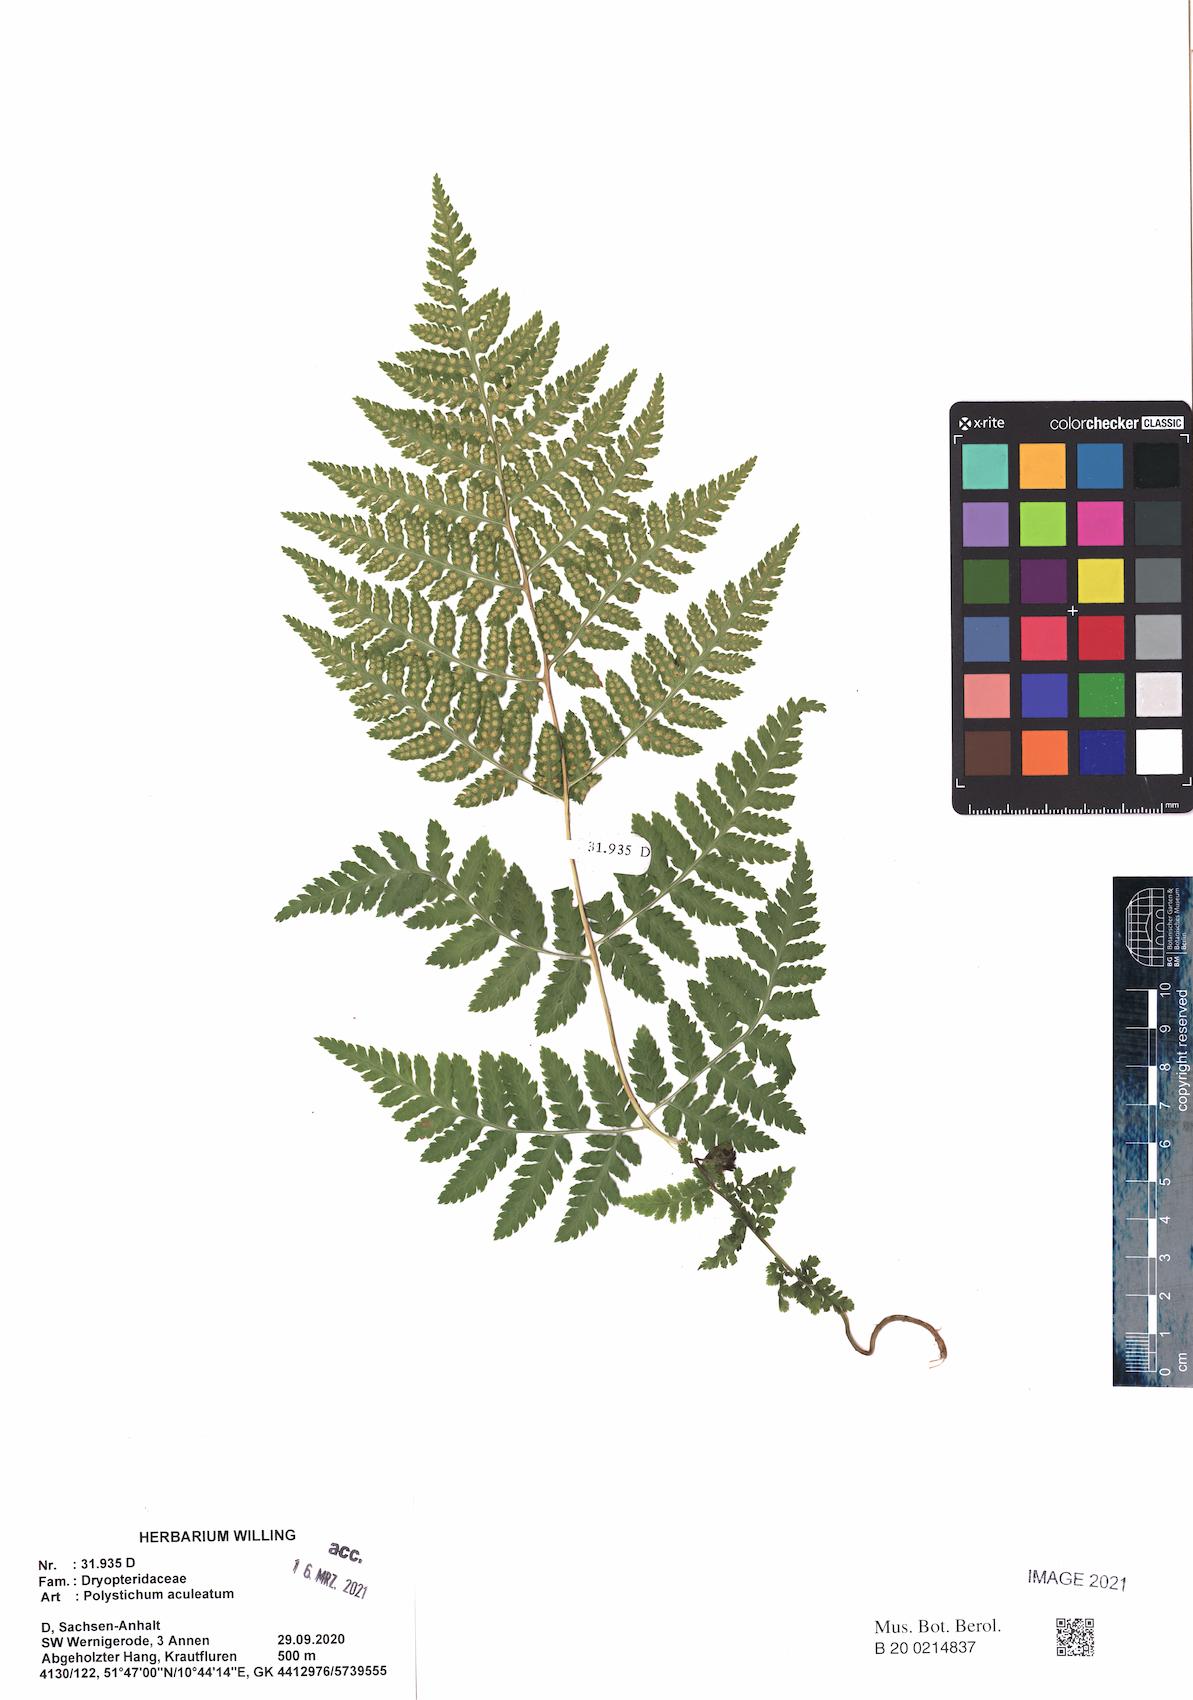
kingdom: Plantae
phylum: Tracheophyta
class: Polypodiopsida
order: Polypodiales
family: Dryopteridaceae
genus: Dryopteris
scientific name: Dryopteris carthusiana
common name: Narrow buckler-fern
